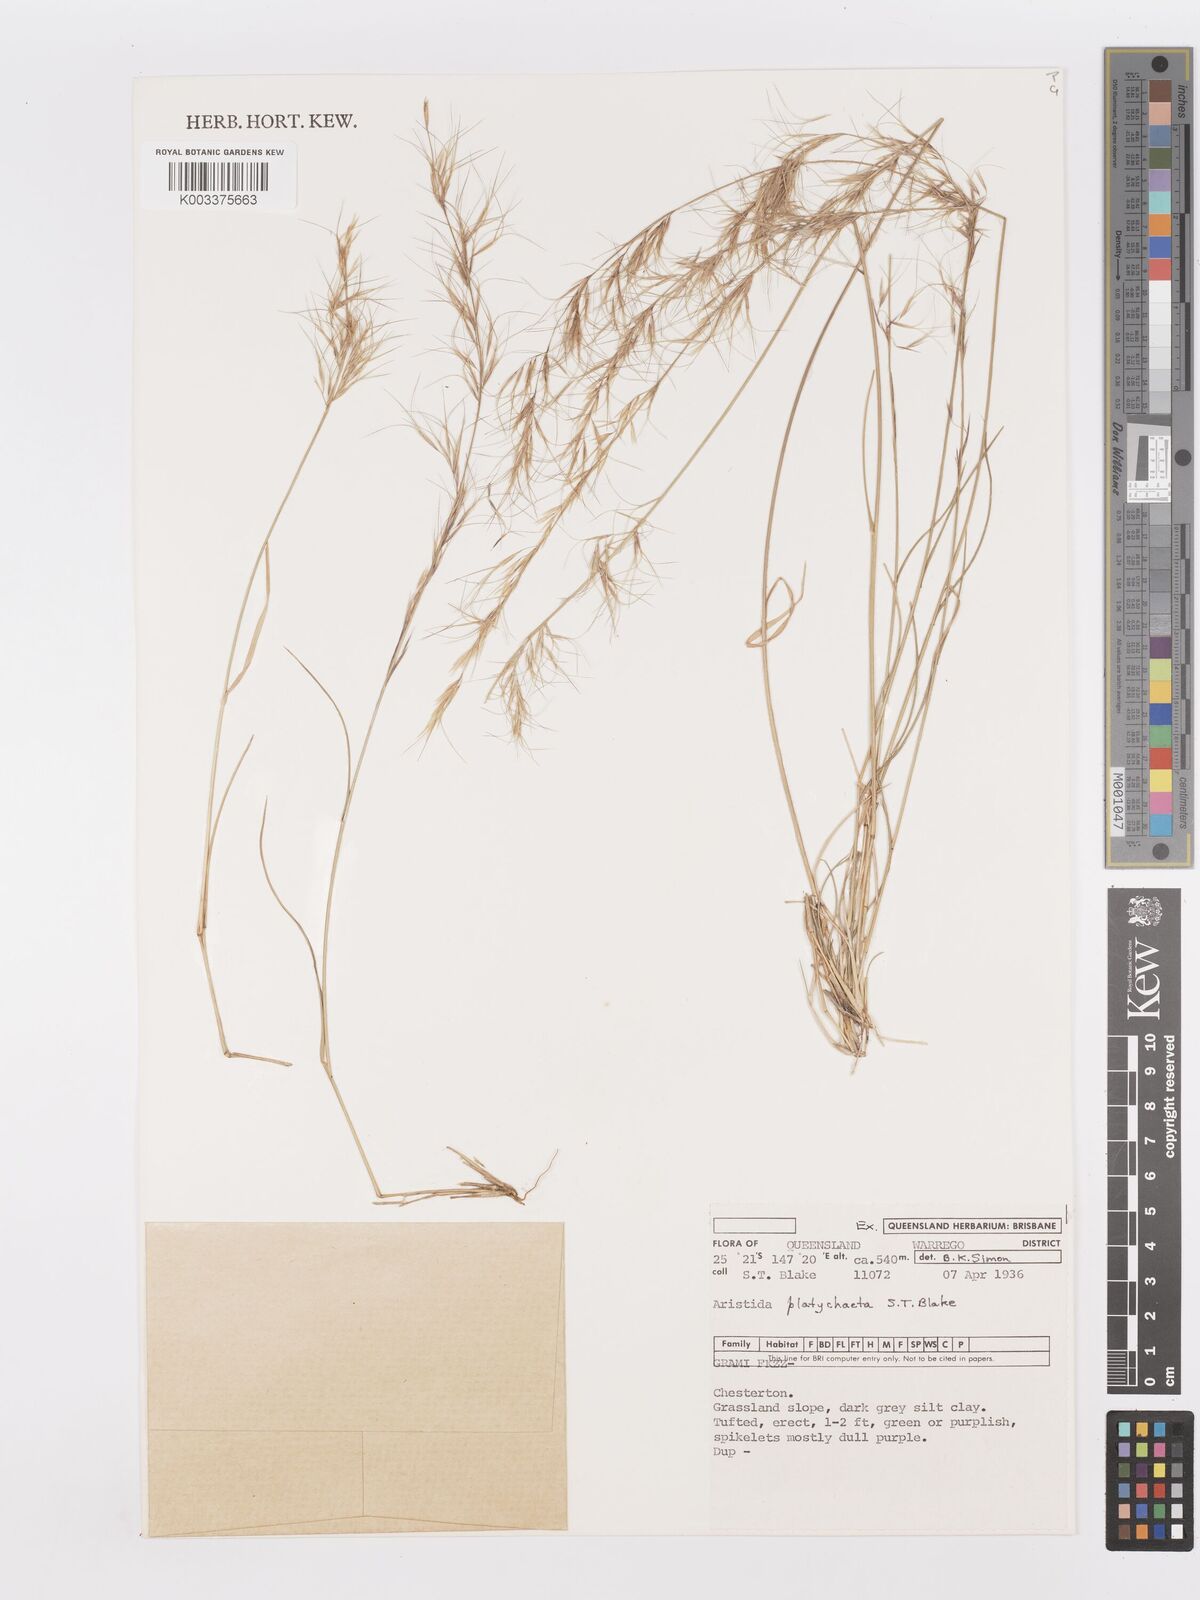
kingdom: Plantae
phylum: Tracheophyta
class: Liliopsida
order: Poales
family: Poaceae
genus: Aristida
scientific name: Aristida platychaeta
